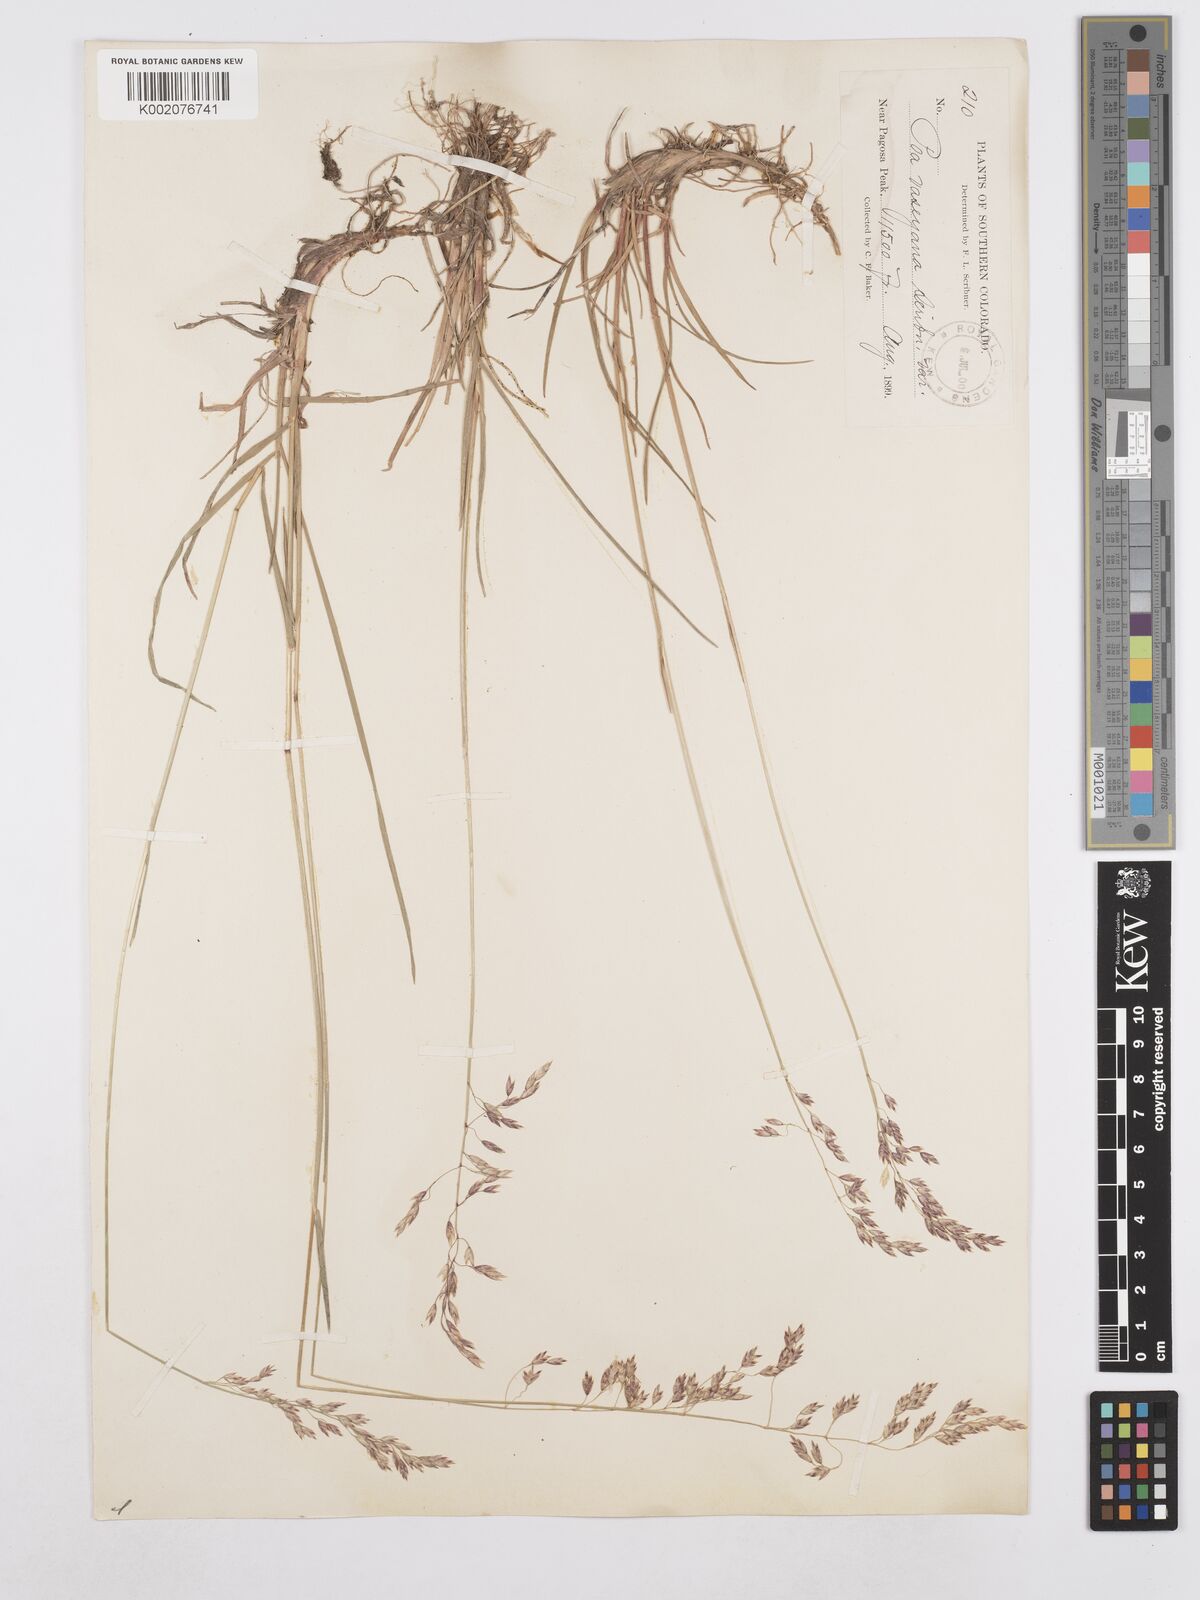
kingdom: Plantae
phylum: Tracheophyta
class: Liliopsida
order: Poales
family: Poaceae
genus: Poa
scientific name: Poa wheeleri
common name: Wheeler's bluegrass
